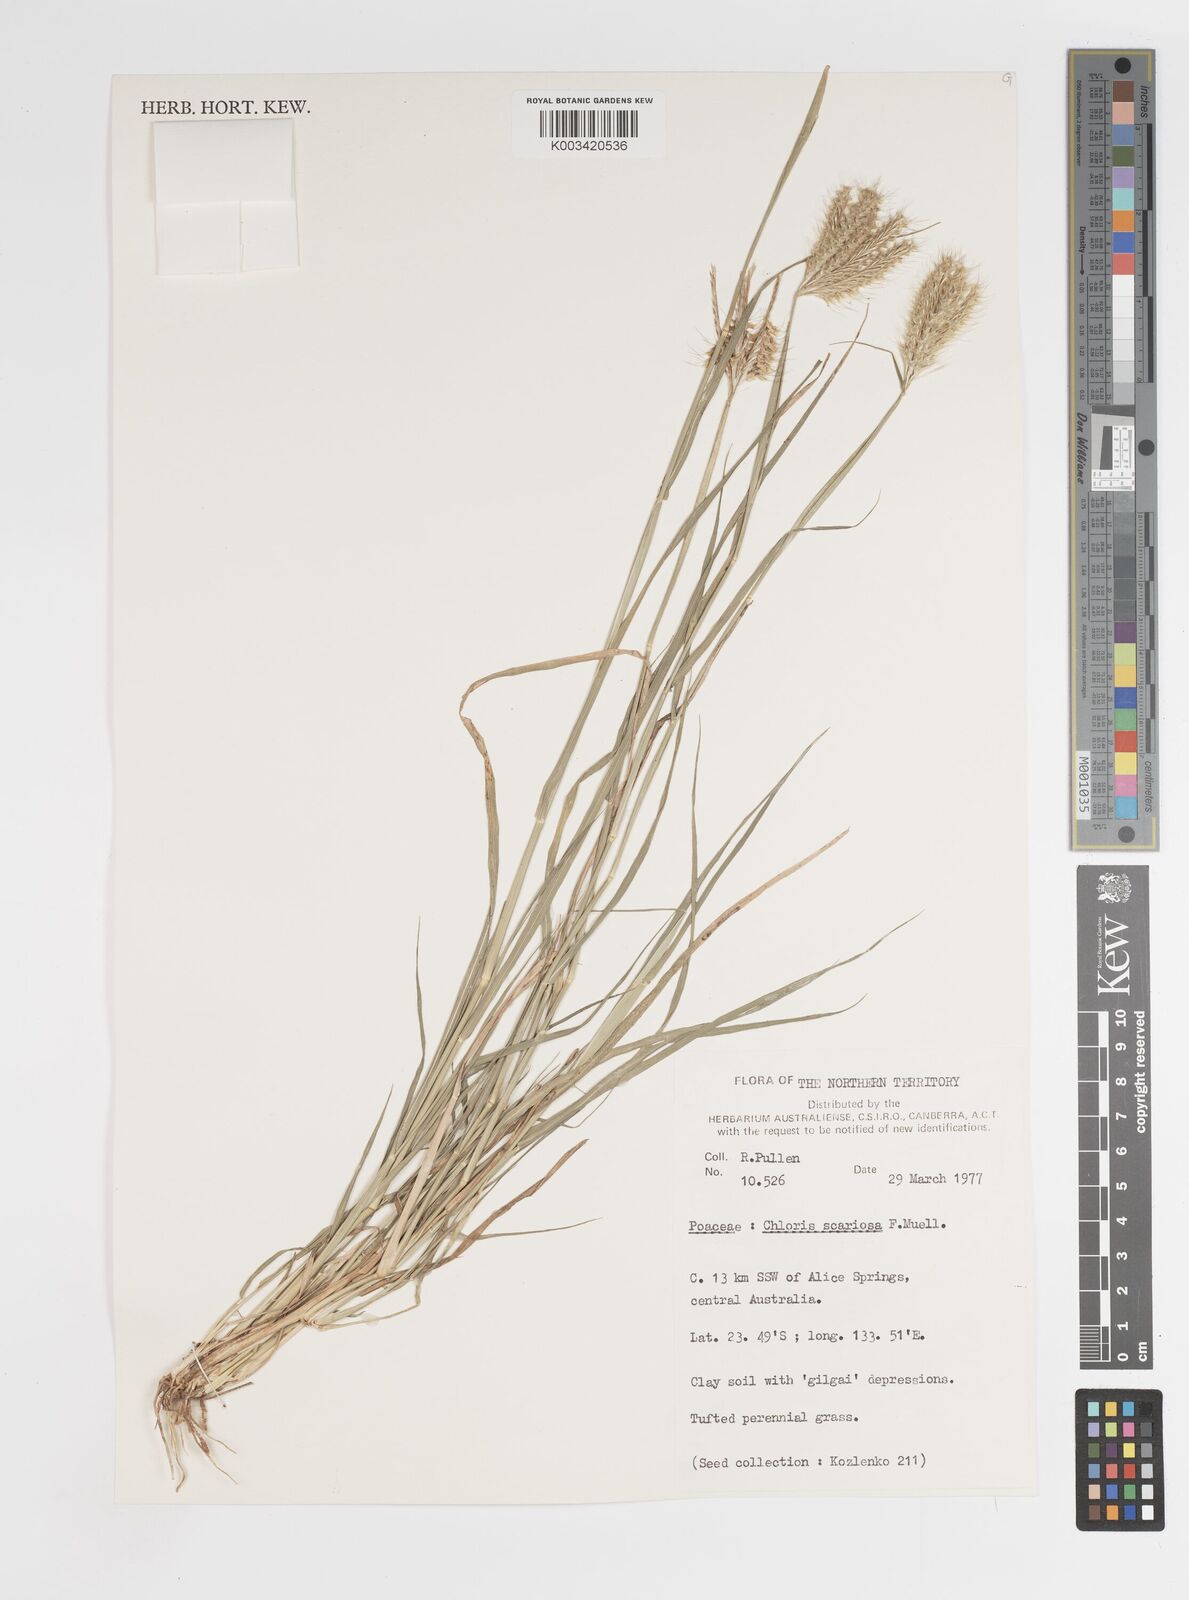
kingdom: Plantae
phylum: Tracheophyta
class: Liliopsida
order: Poales
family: Poaceae
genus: Oxychloris
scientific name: Oxychloris scariosa
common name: Winged windmill grass
